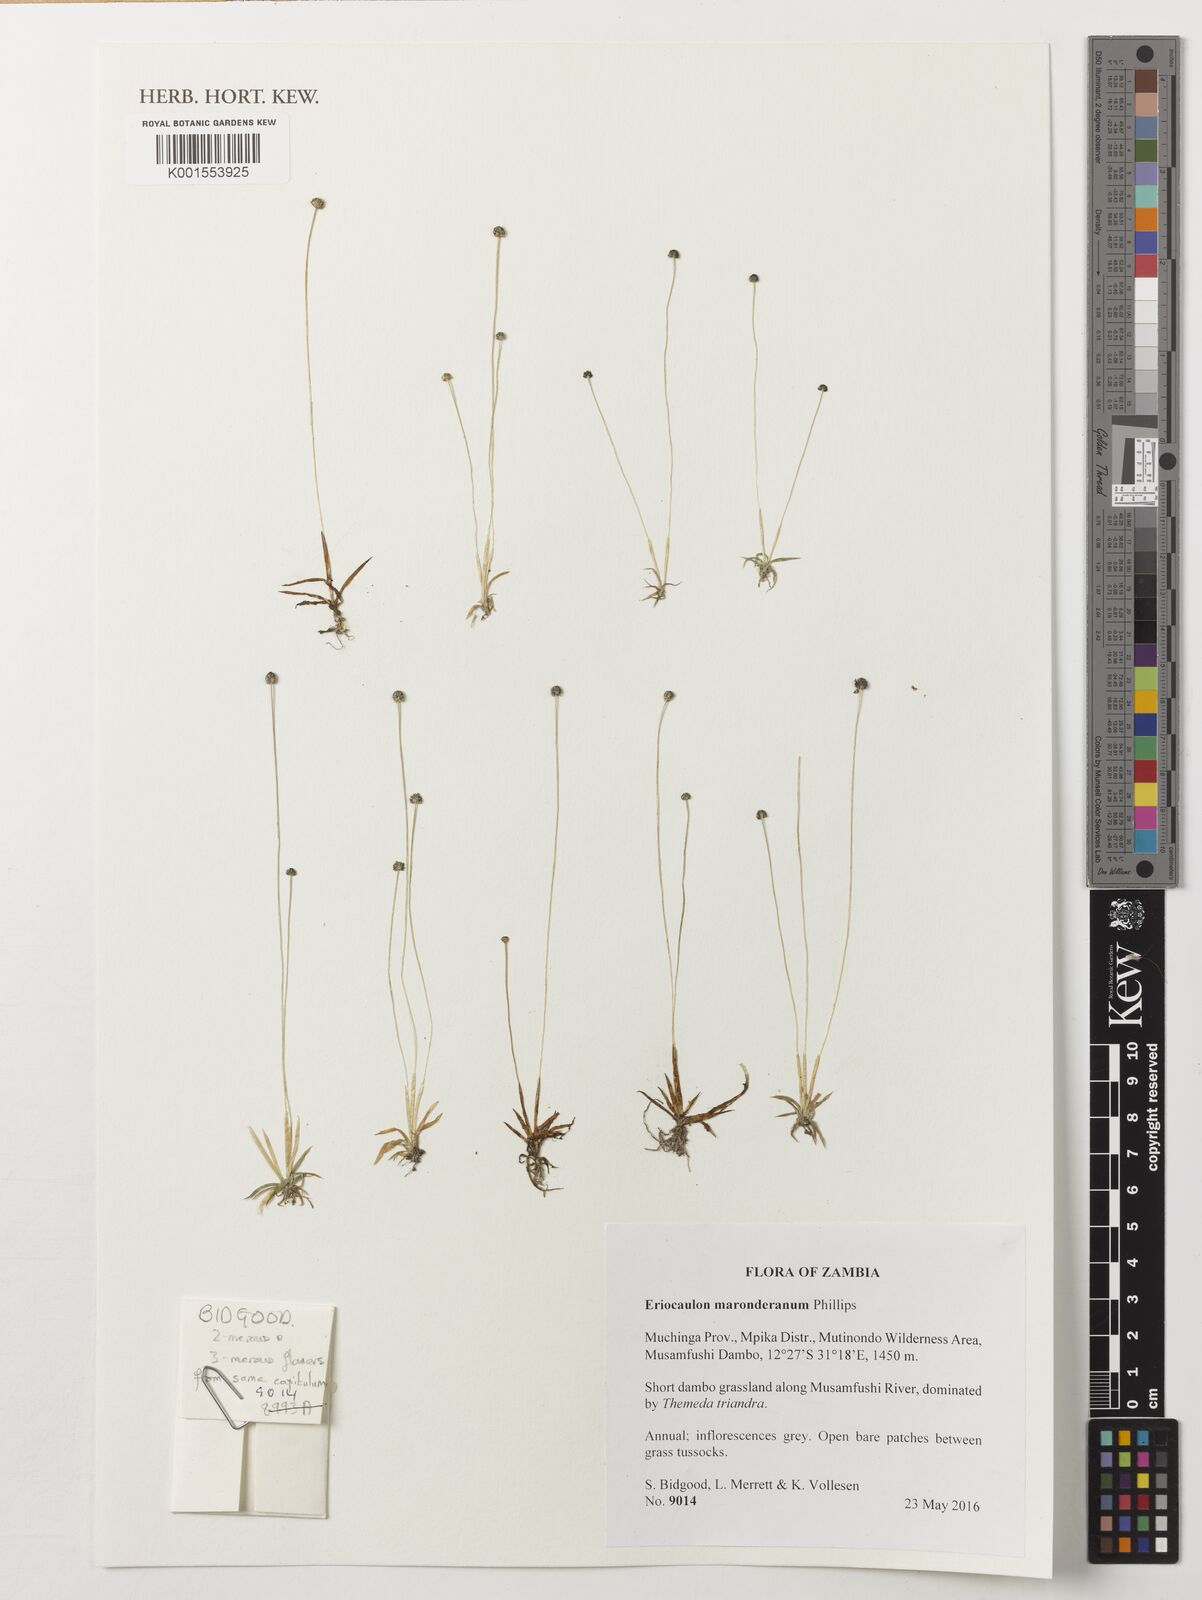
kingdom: Plantae
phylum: Tracheophyta
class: Liliopsida
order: Poales
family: Eriocaulaceae
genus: Eriocaulon
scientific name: Eriocaulon maronderanum
